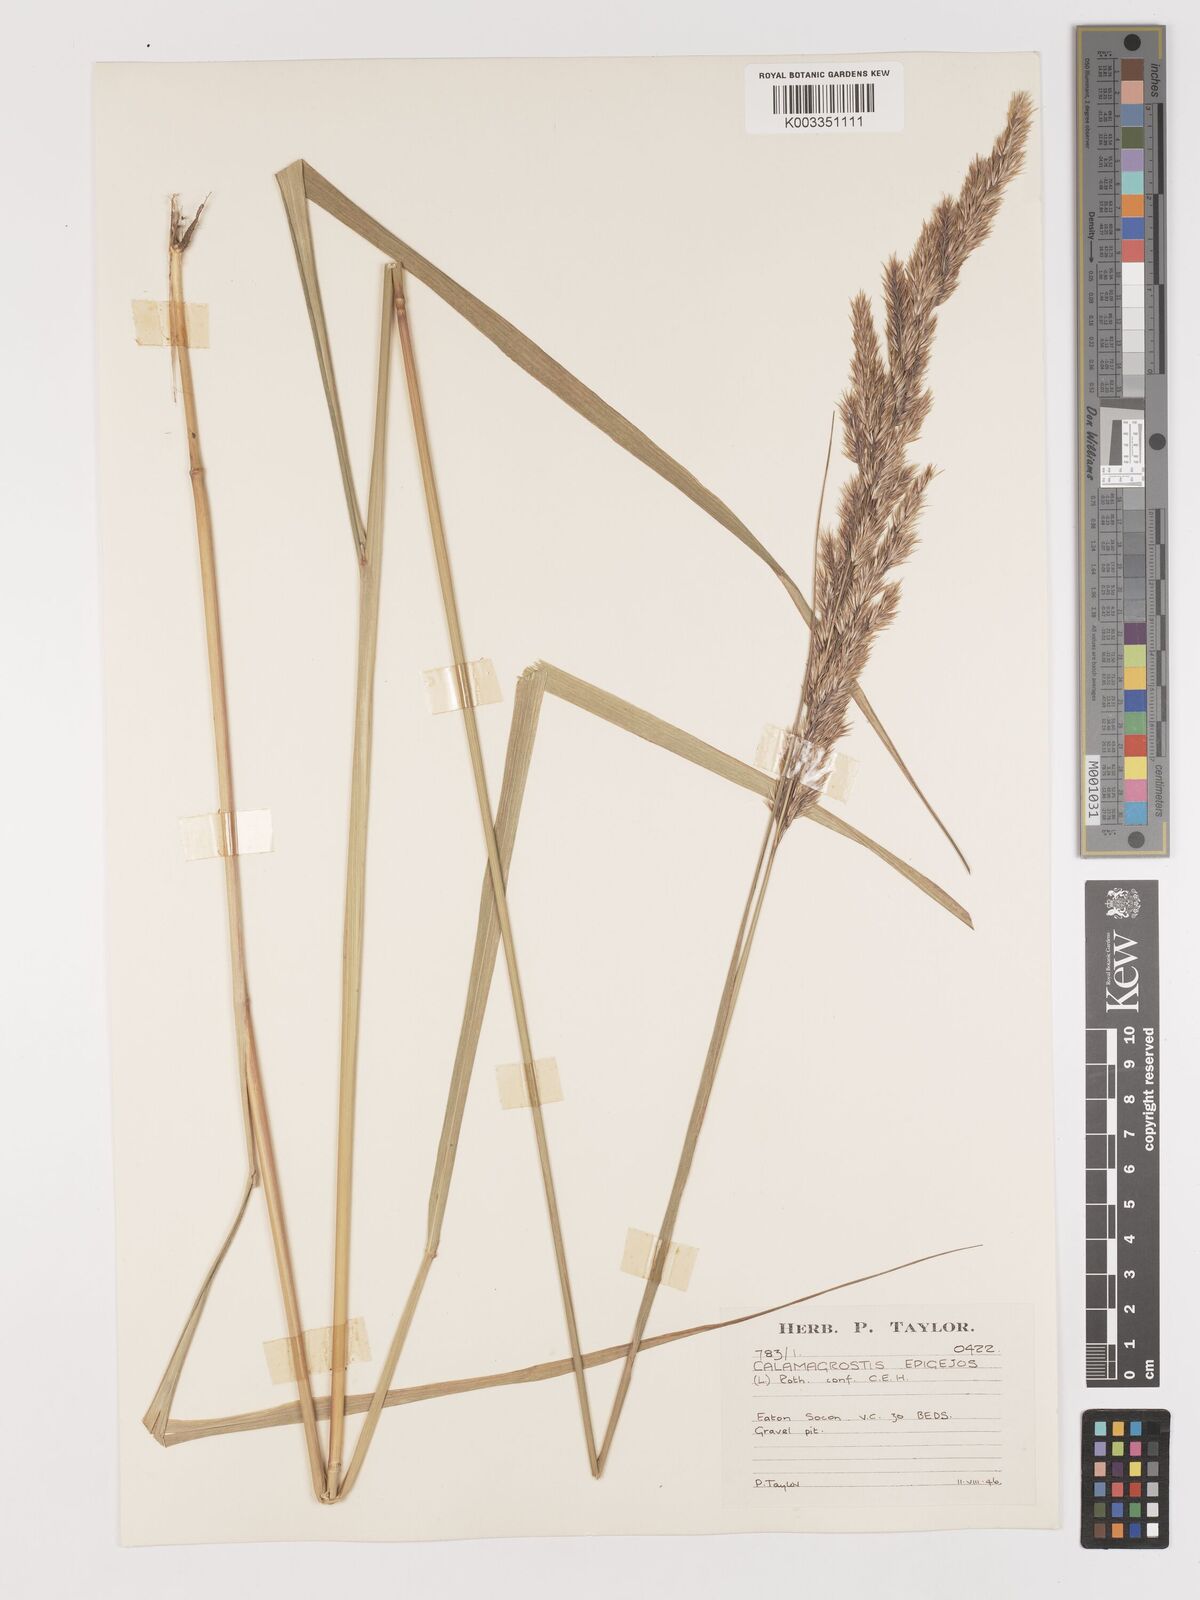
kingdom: Plantae
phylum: Tracheophyta
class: Liliopsida
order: Poales
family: Poaceae
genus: Calamagrostis
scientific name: Calamagrostis
